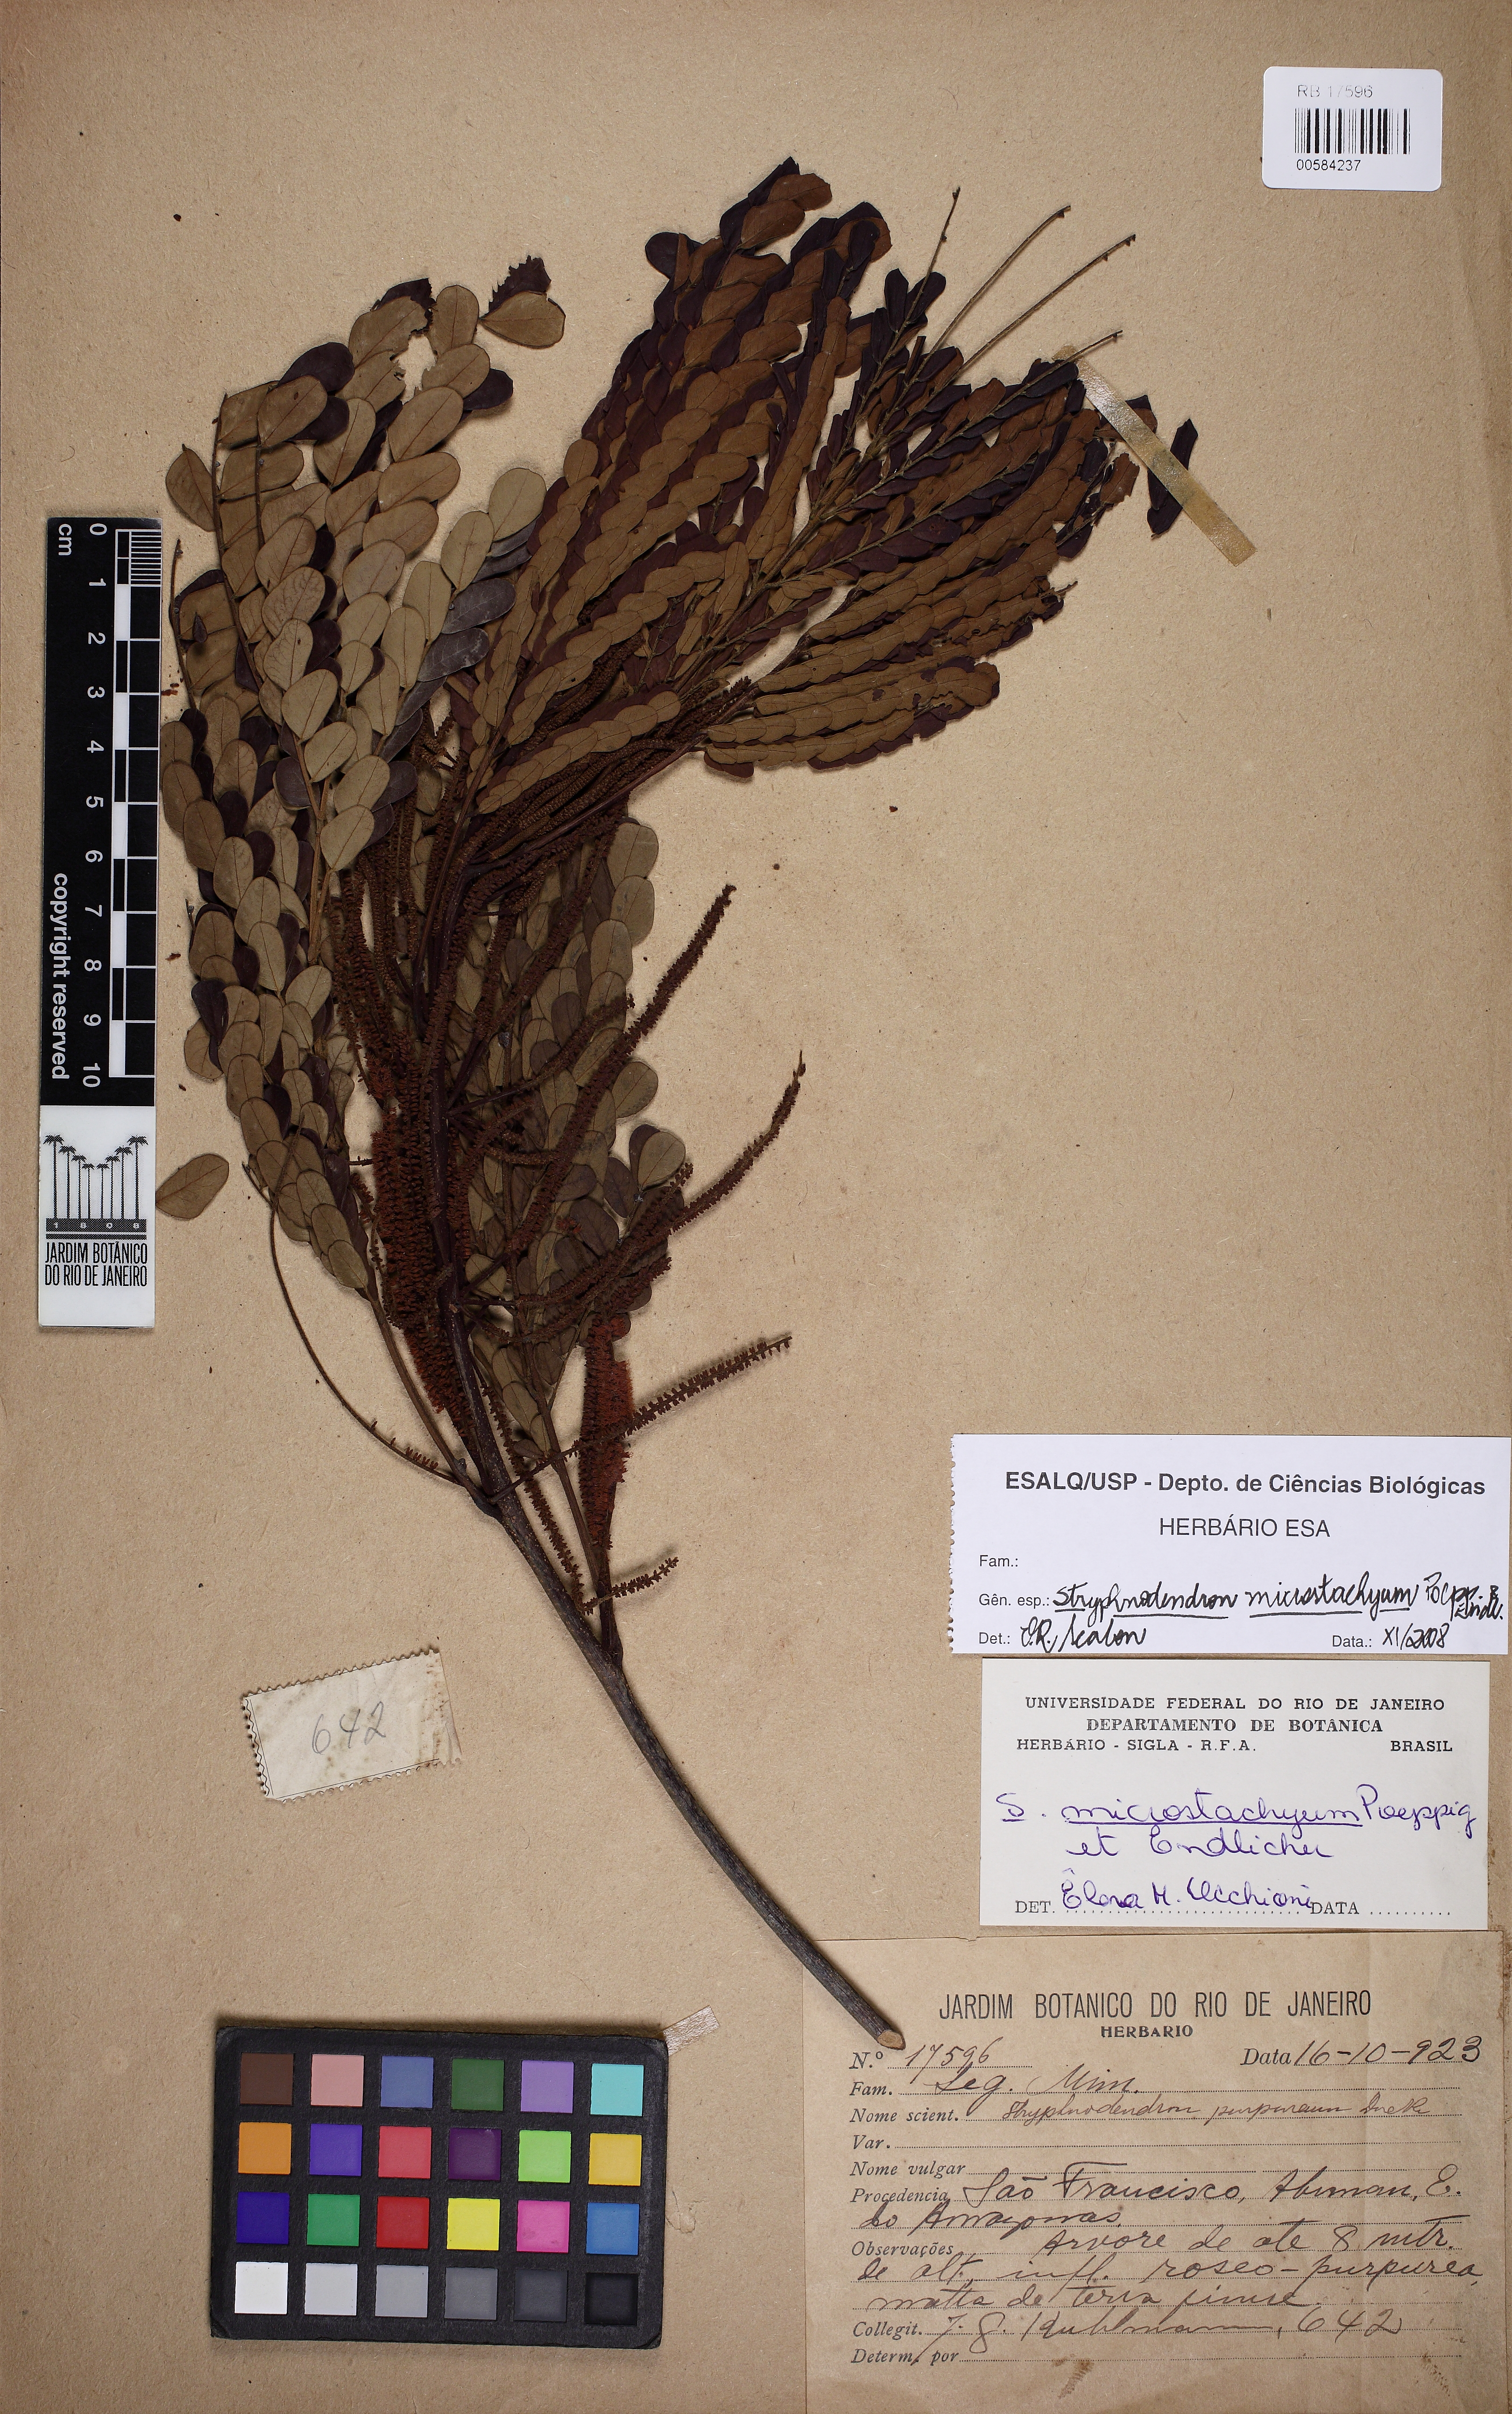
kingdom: Plantae
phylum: Tracheophyta
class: Magnoliopsida
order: Fabales
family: Fabaceae
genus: Stryphnodendron
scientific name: Stryphnodendron microstachyum
